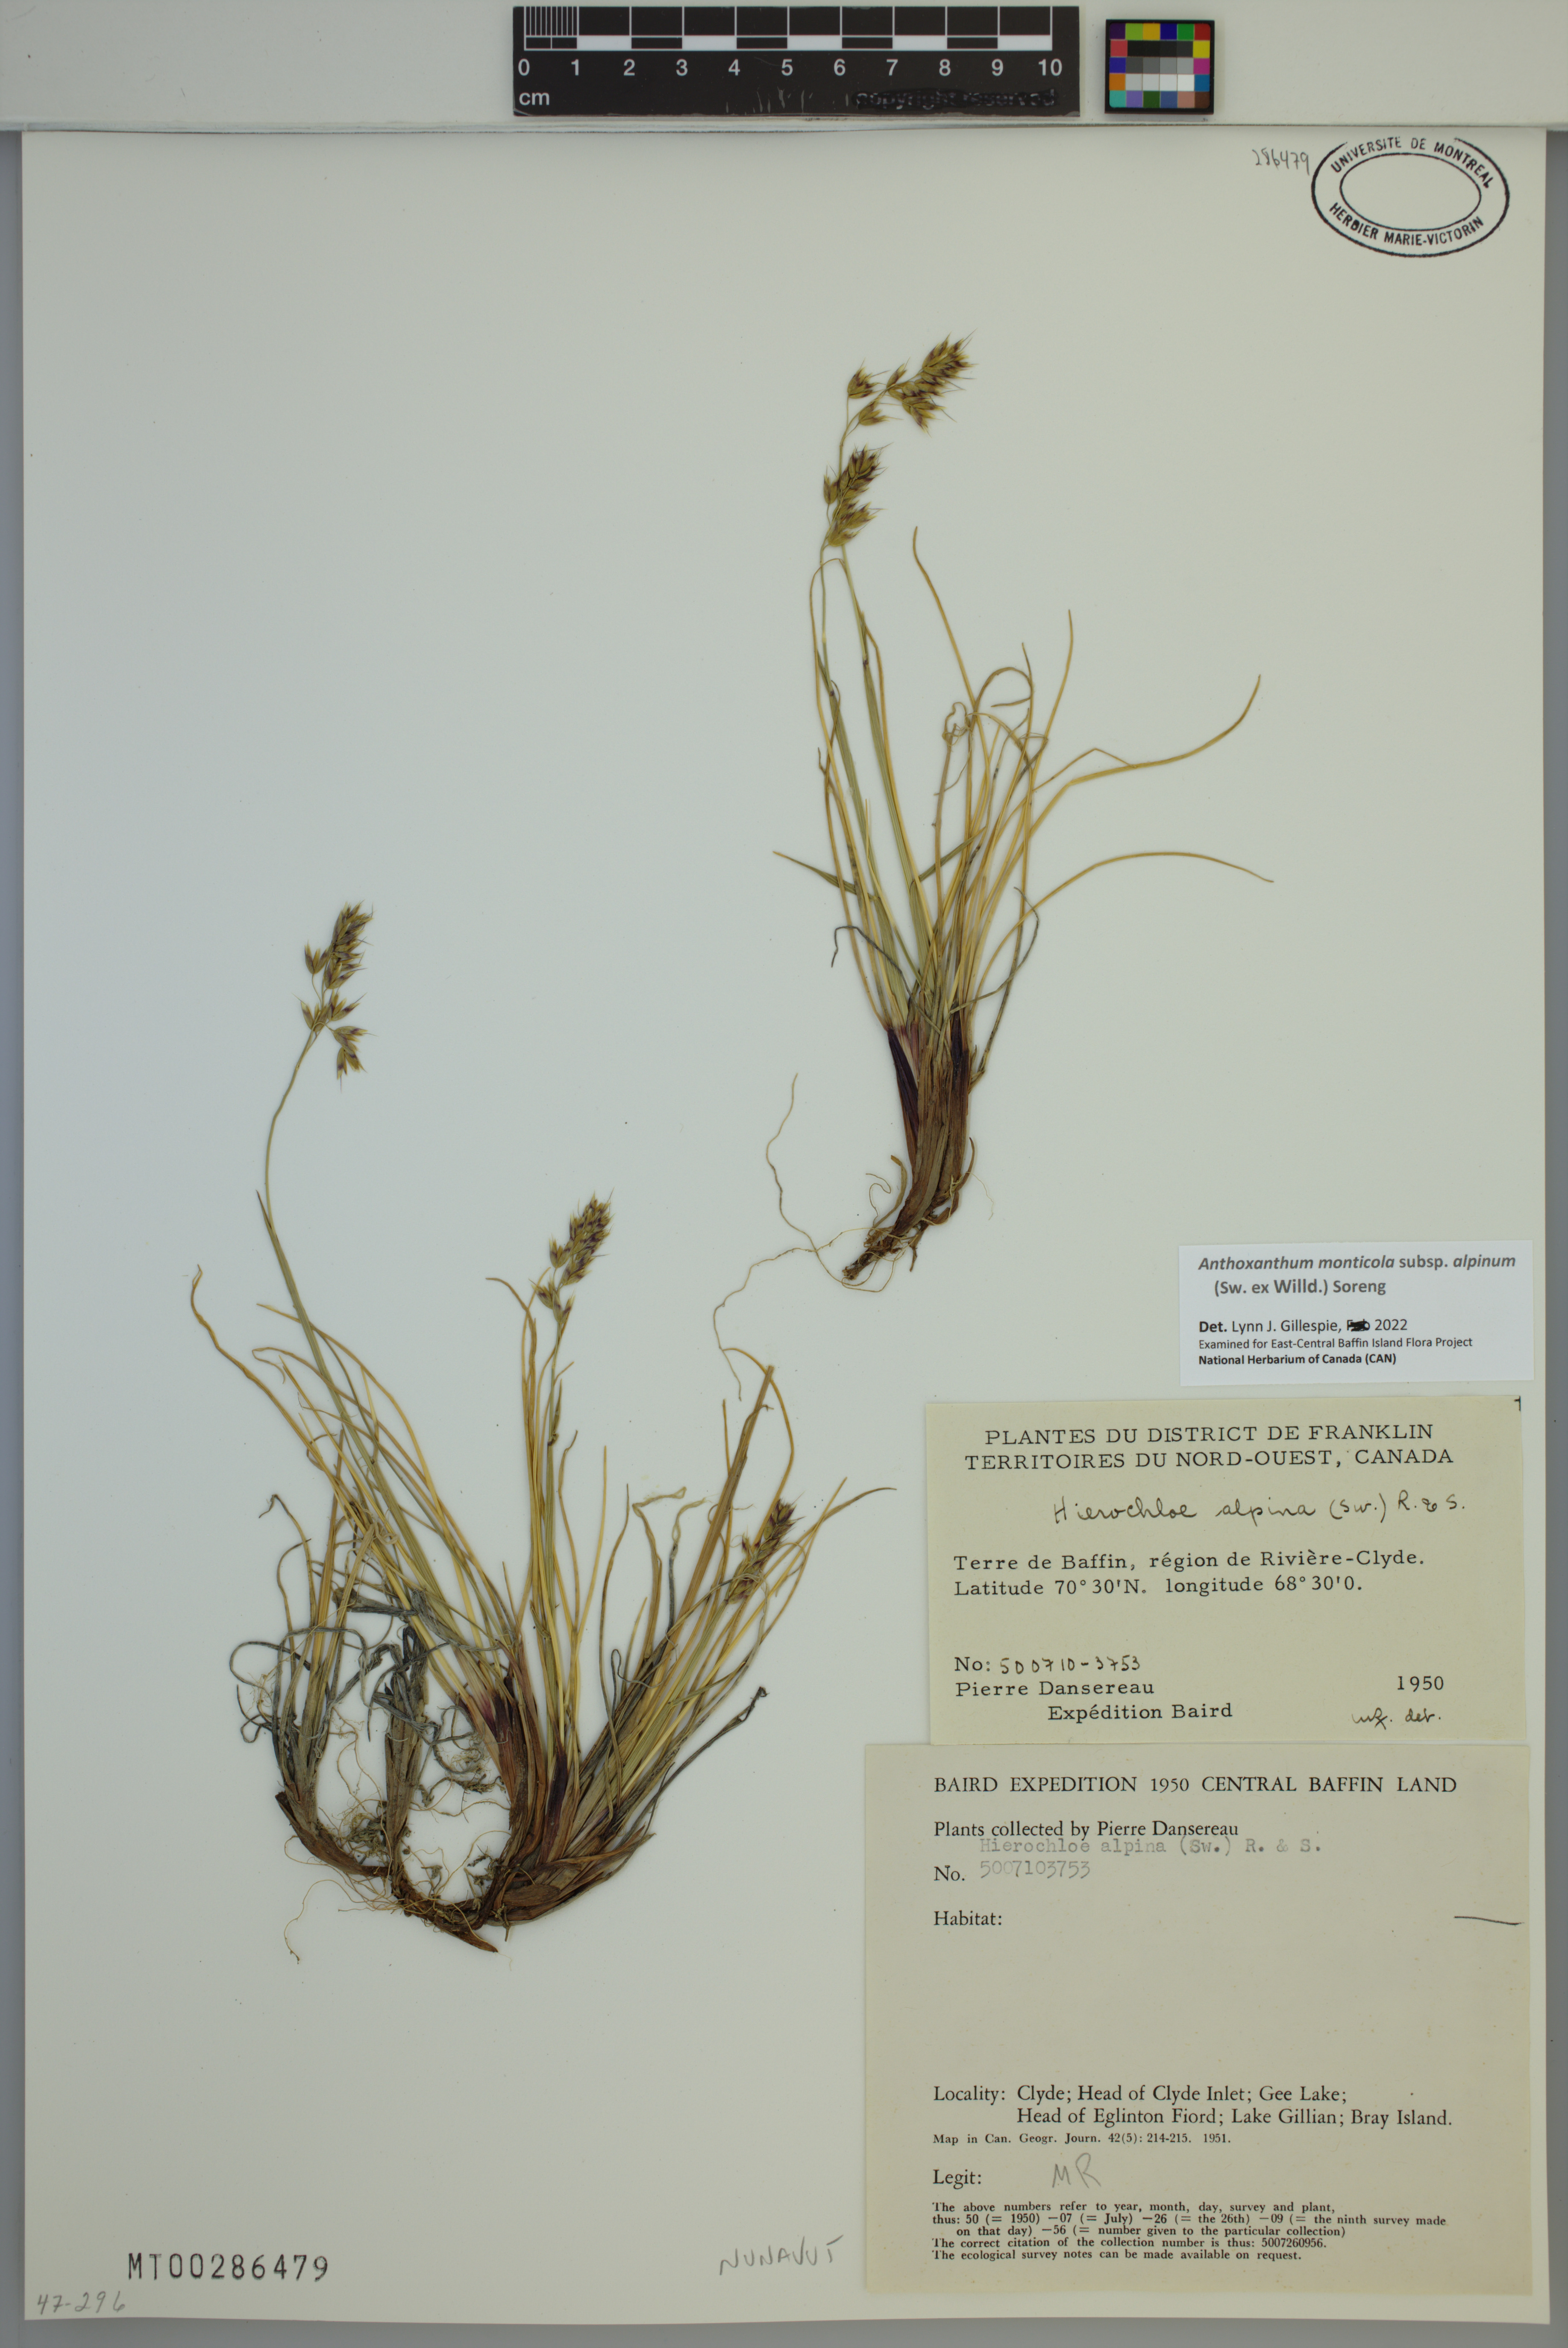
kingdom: Plantae
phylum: Tracheophyta
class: Liliopsida
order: Poales
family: Poaceae
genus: Anthoxanthum
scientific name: Anthoxanthum monticola
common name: Alpine sweetgrass
